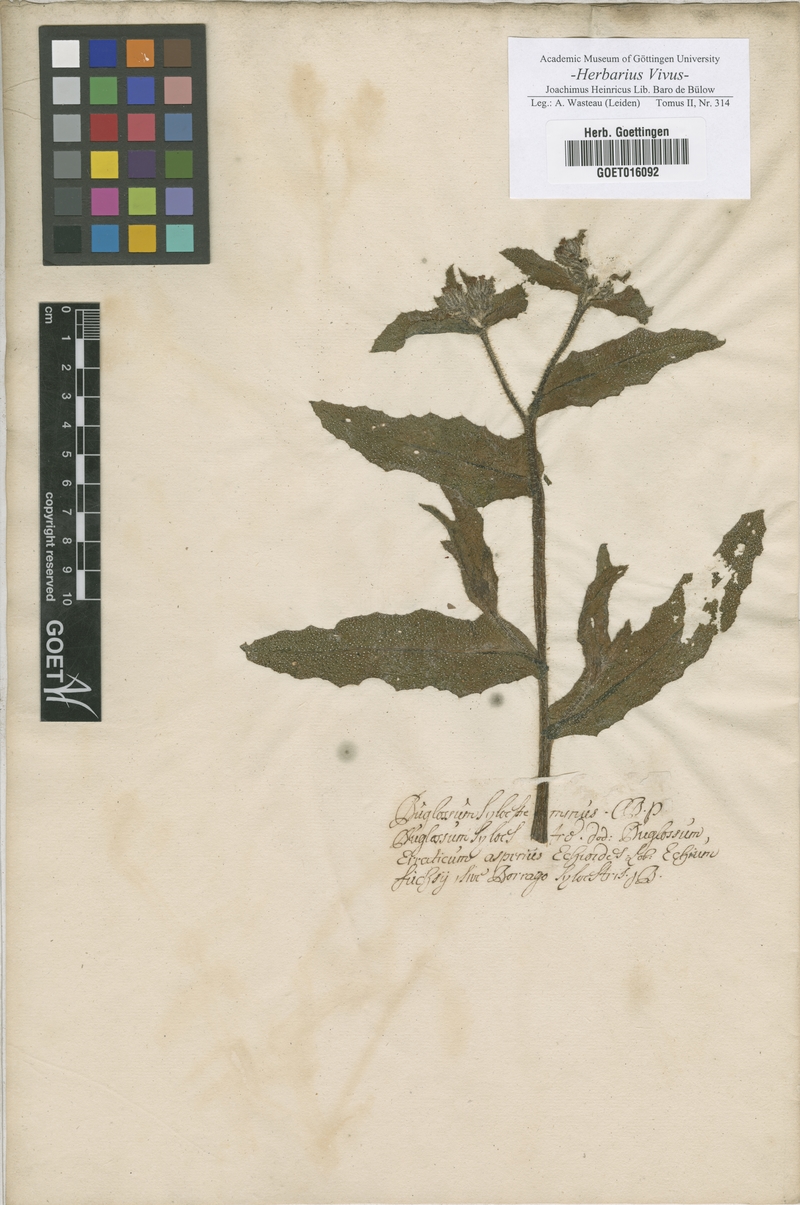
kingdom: Plantae
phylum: Tracheophyta
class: Magnoliopsida
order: Boraginales
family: Boraginaceae
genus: Buglossum
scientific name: Buglossum
